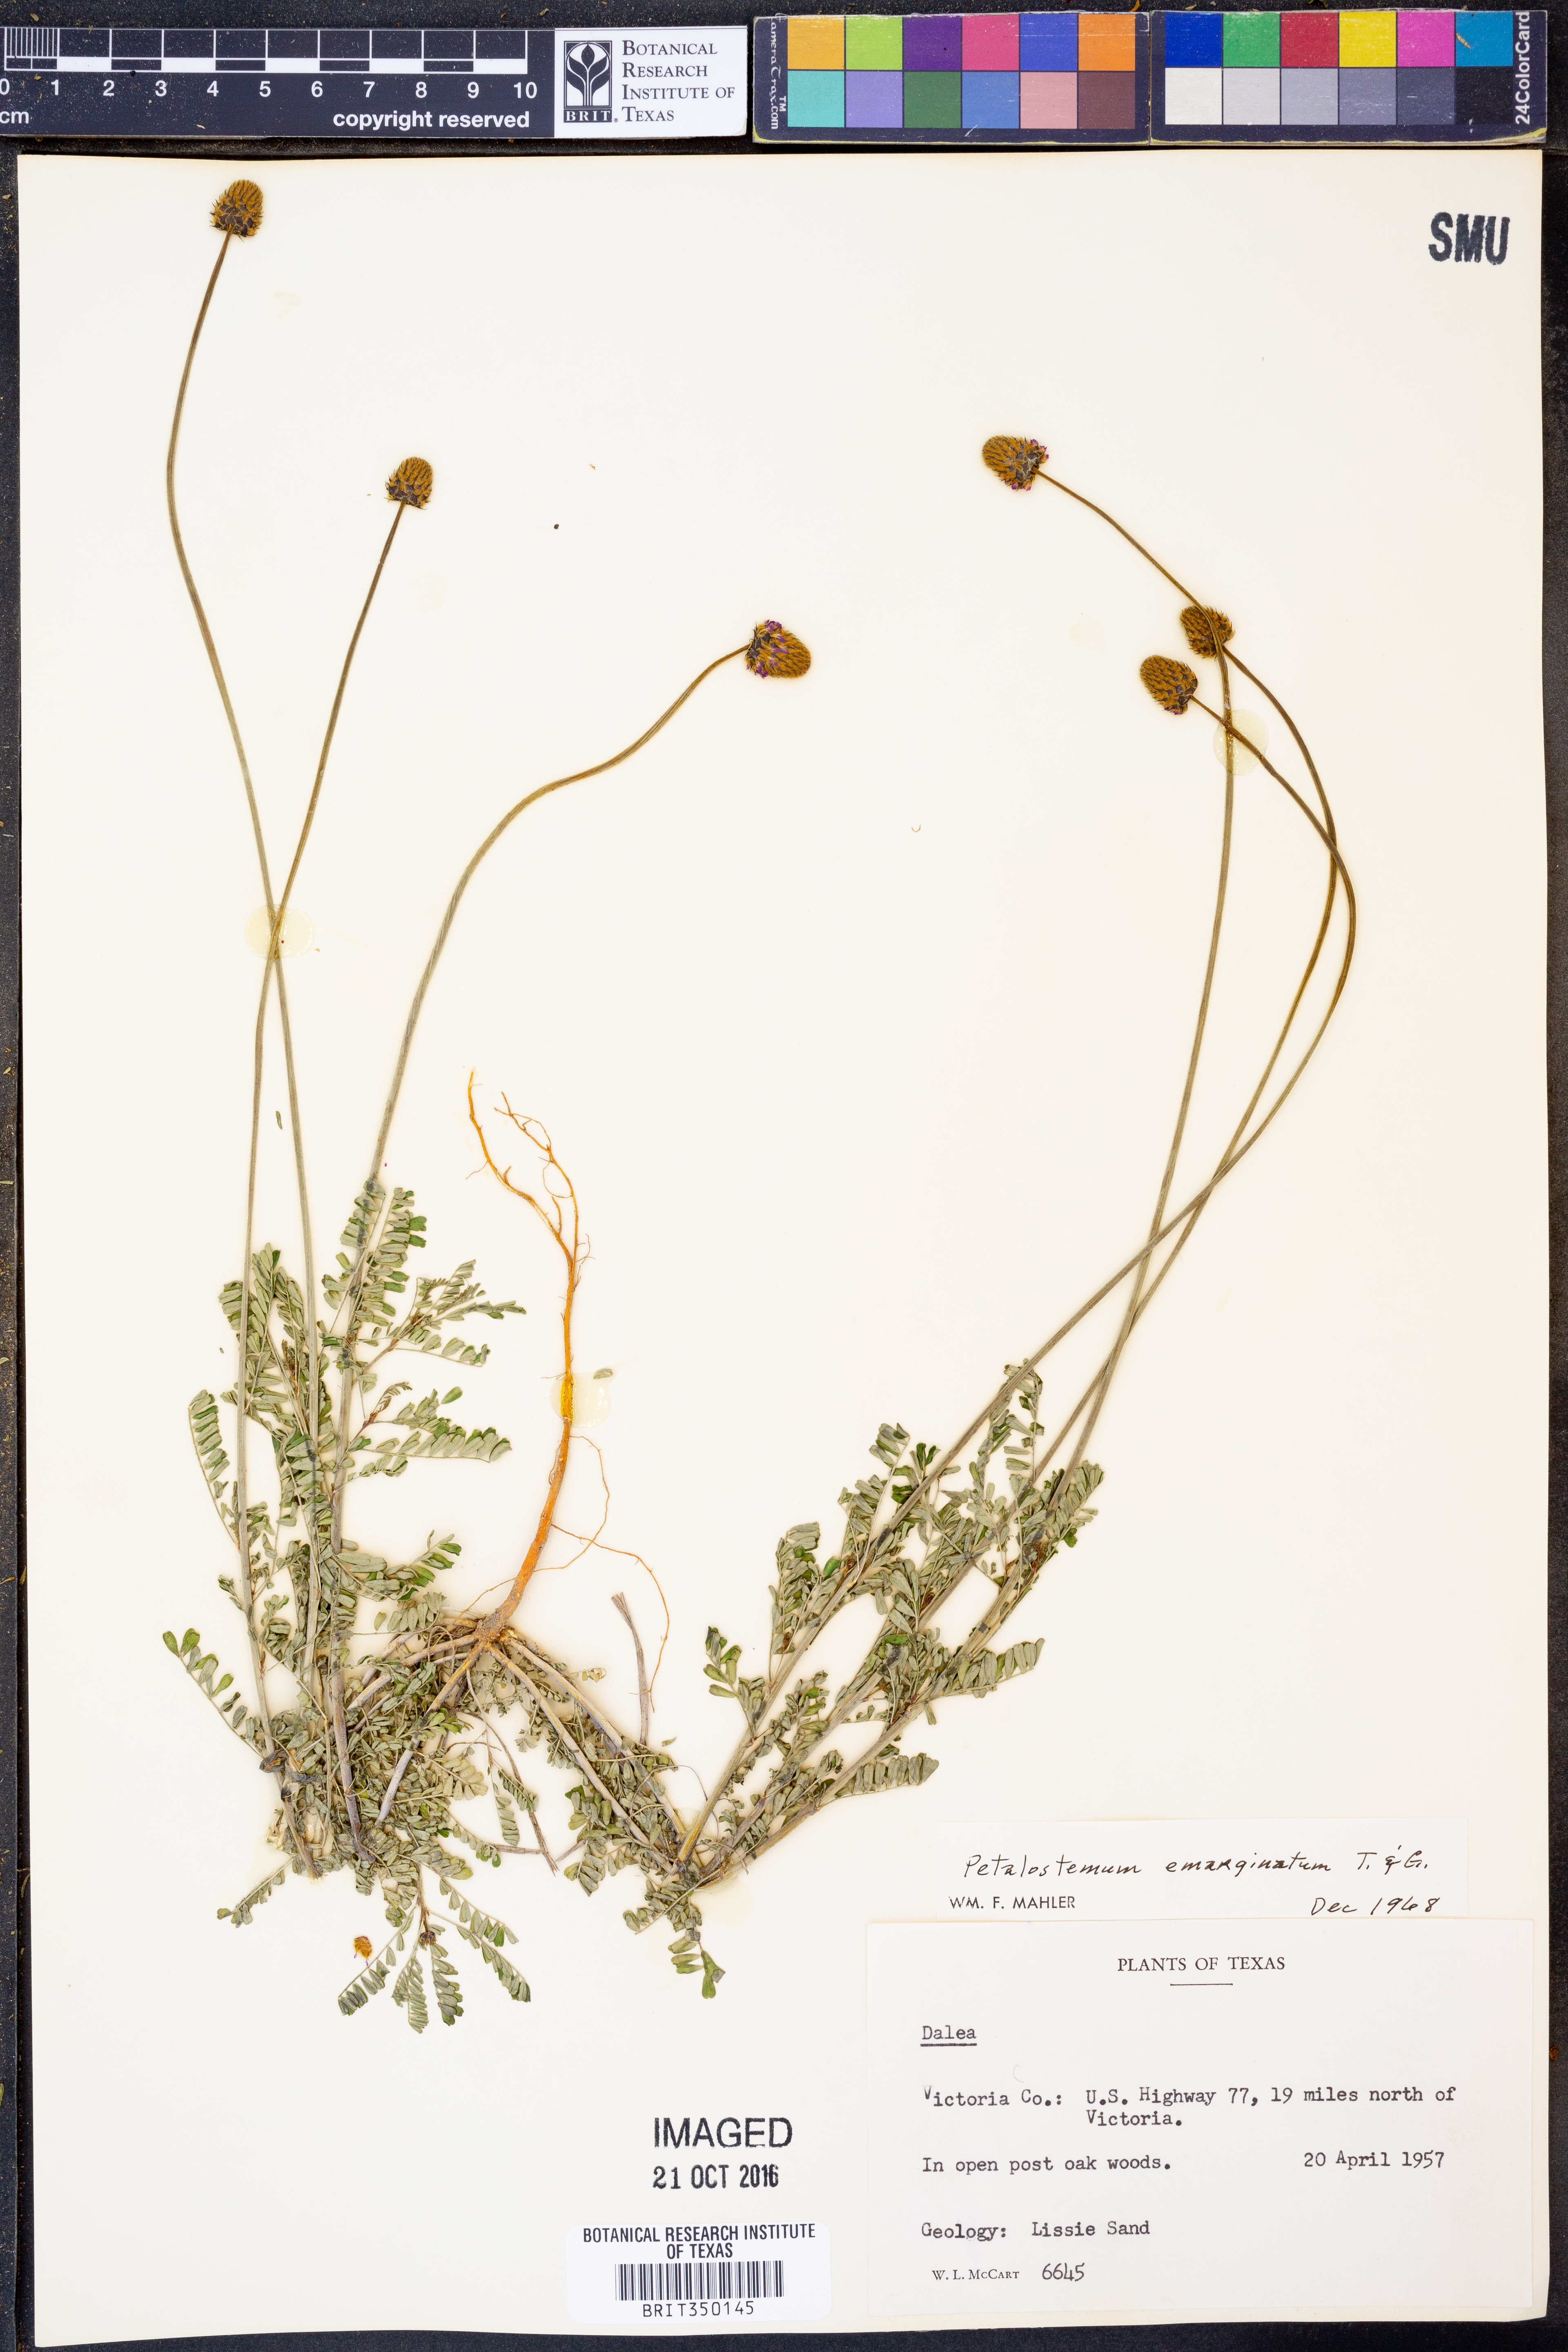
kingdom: Plantae
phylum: Tracheophyta
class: Magnoliopsida
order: Fabales
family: Fabaceae
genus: Dalea
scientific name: Dalea emarginata
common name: Wedgeleaf prairie clover
